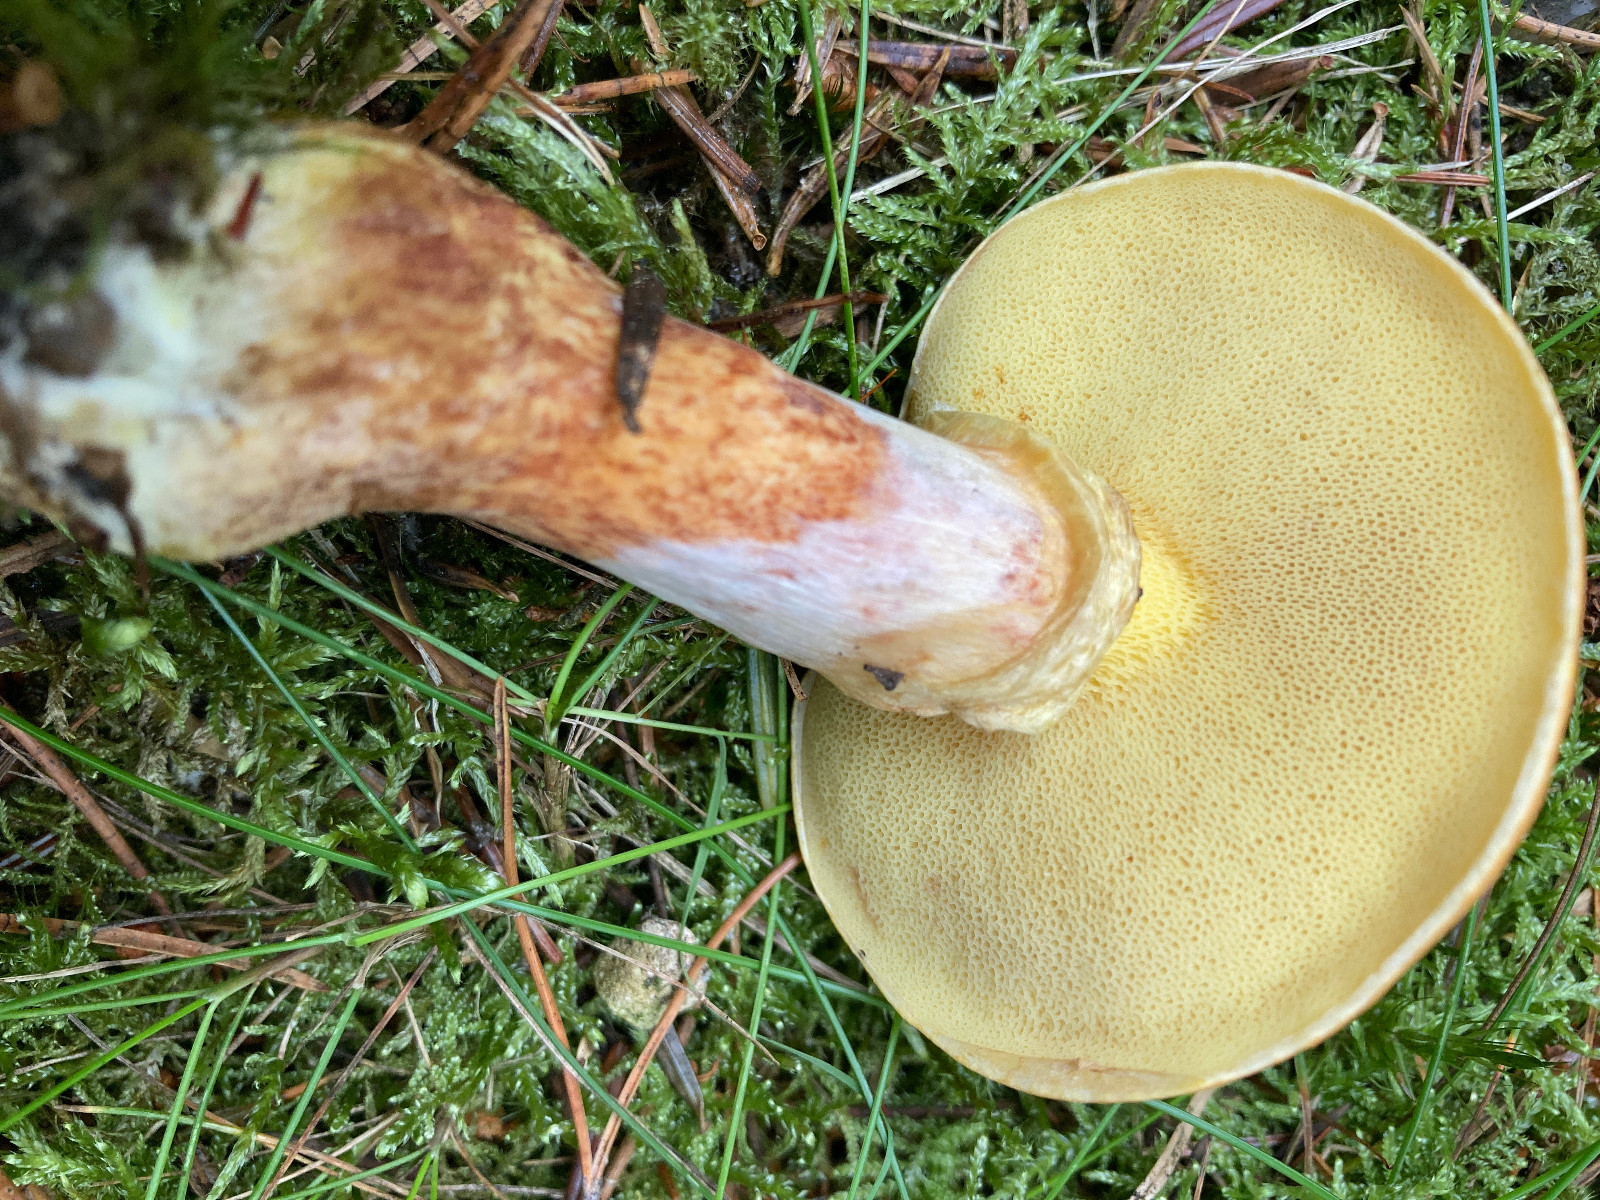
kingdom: Fungi
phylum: Basidiomycota
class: Agaricomycetes
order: Boletales
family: Suillaceae
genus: Suillus
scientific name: Suillus grevillei
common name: lærke-slimrørhat
